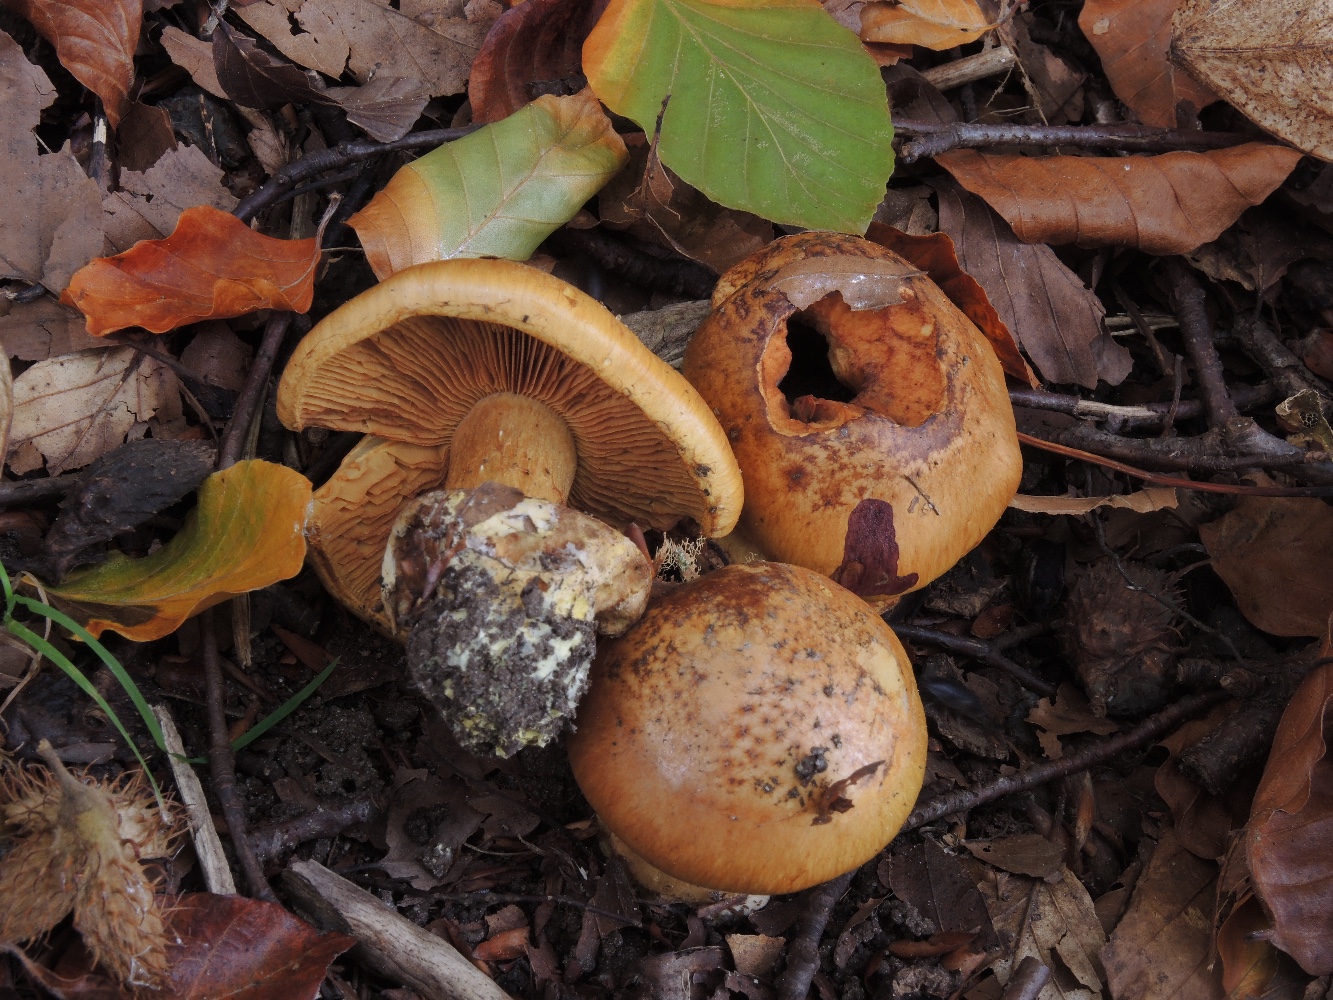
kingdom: Fungi
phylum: Basidiomycota
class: Agaricomycetes
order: Agaricales
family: Cortinariaceae
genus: Calonarius
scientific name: Calonarius alcalinophilus
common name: gyldenbrun slørhat
